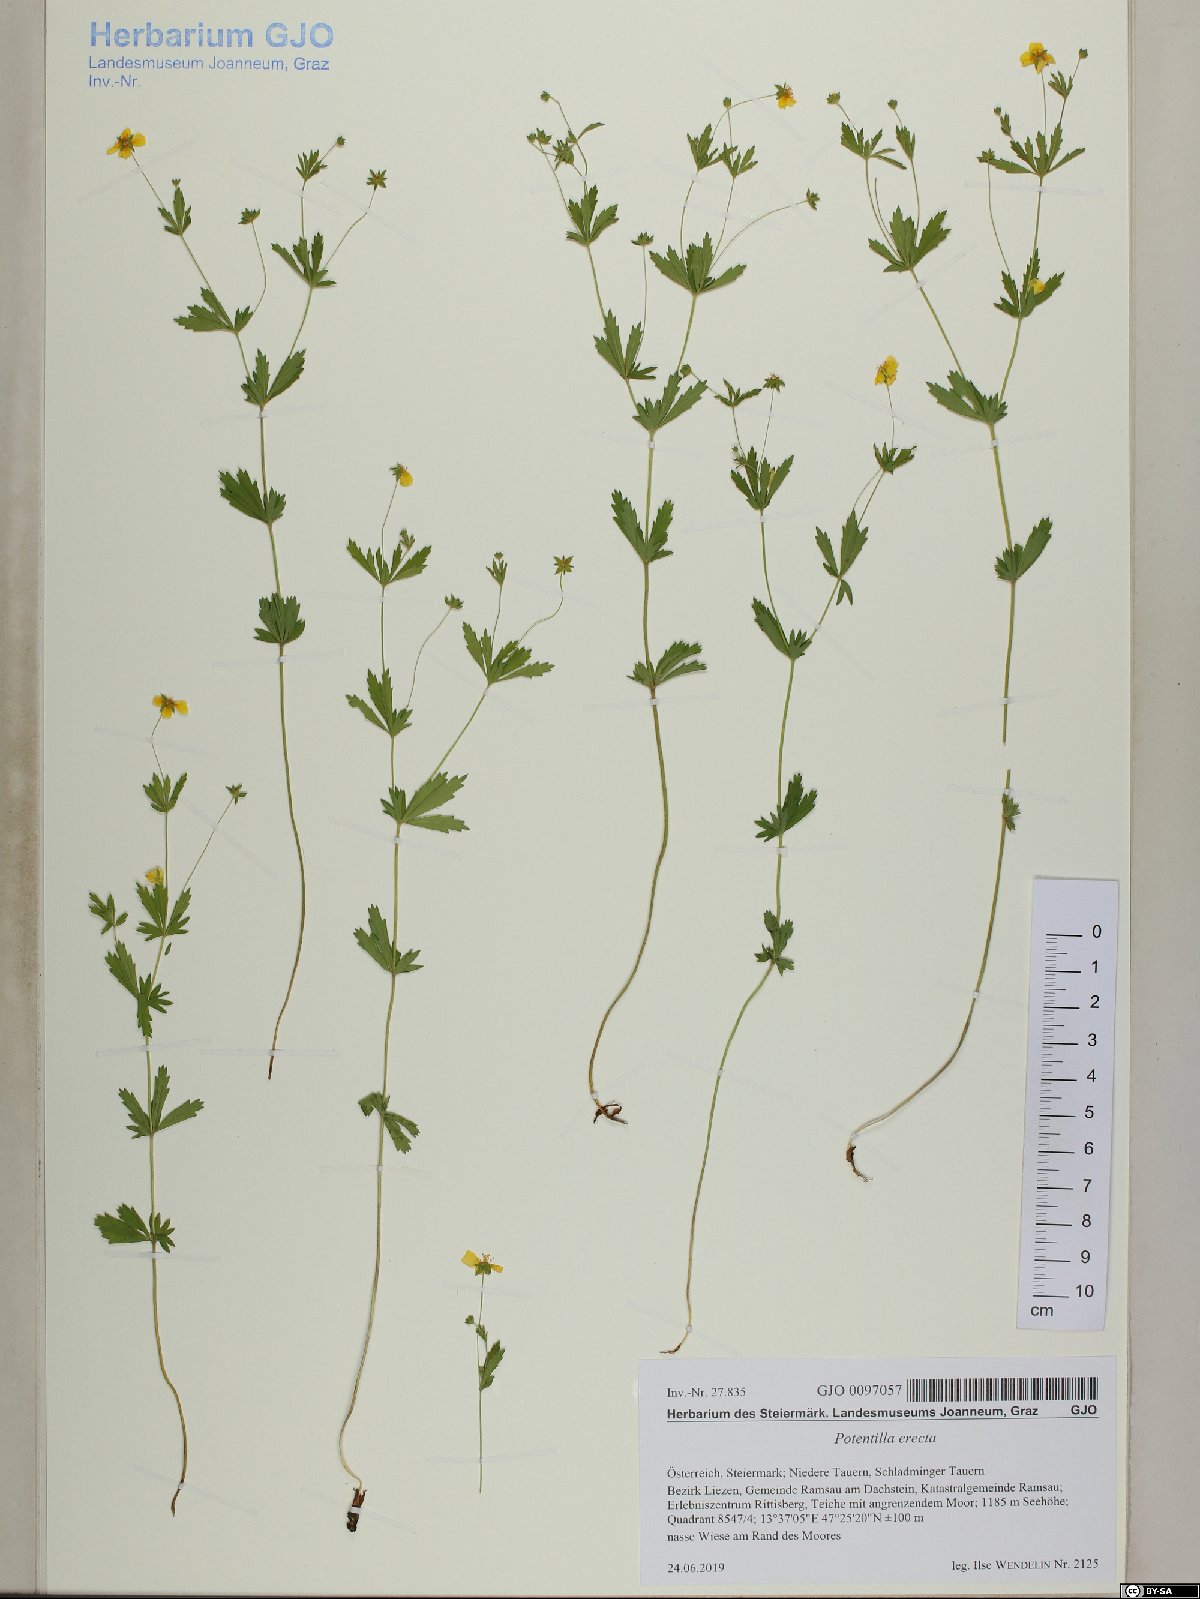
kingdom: Plantae
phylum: Tracheophyta
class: Magnoliopsida
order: Rosales
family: Rosaceae
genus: Potentilla
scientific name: Potentilla erecta
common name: Tormentil
